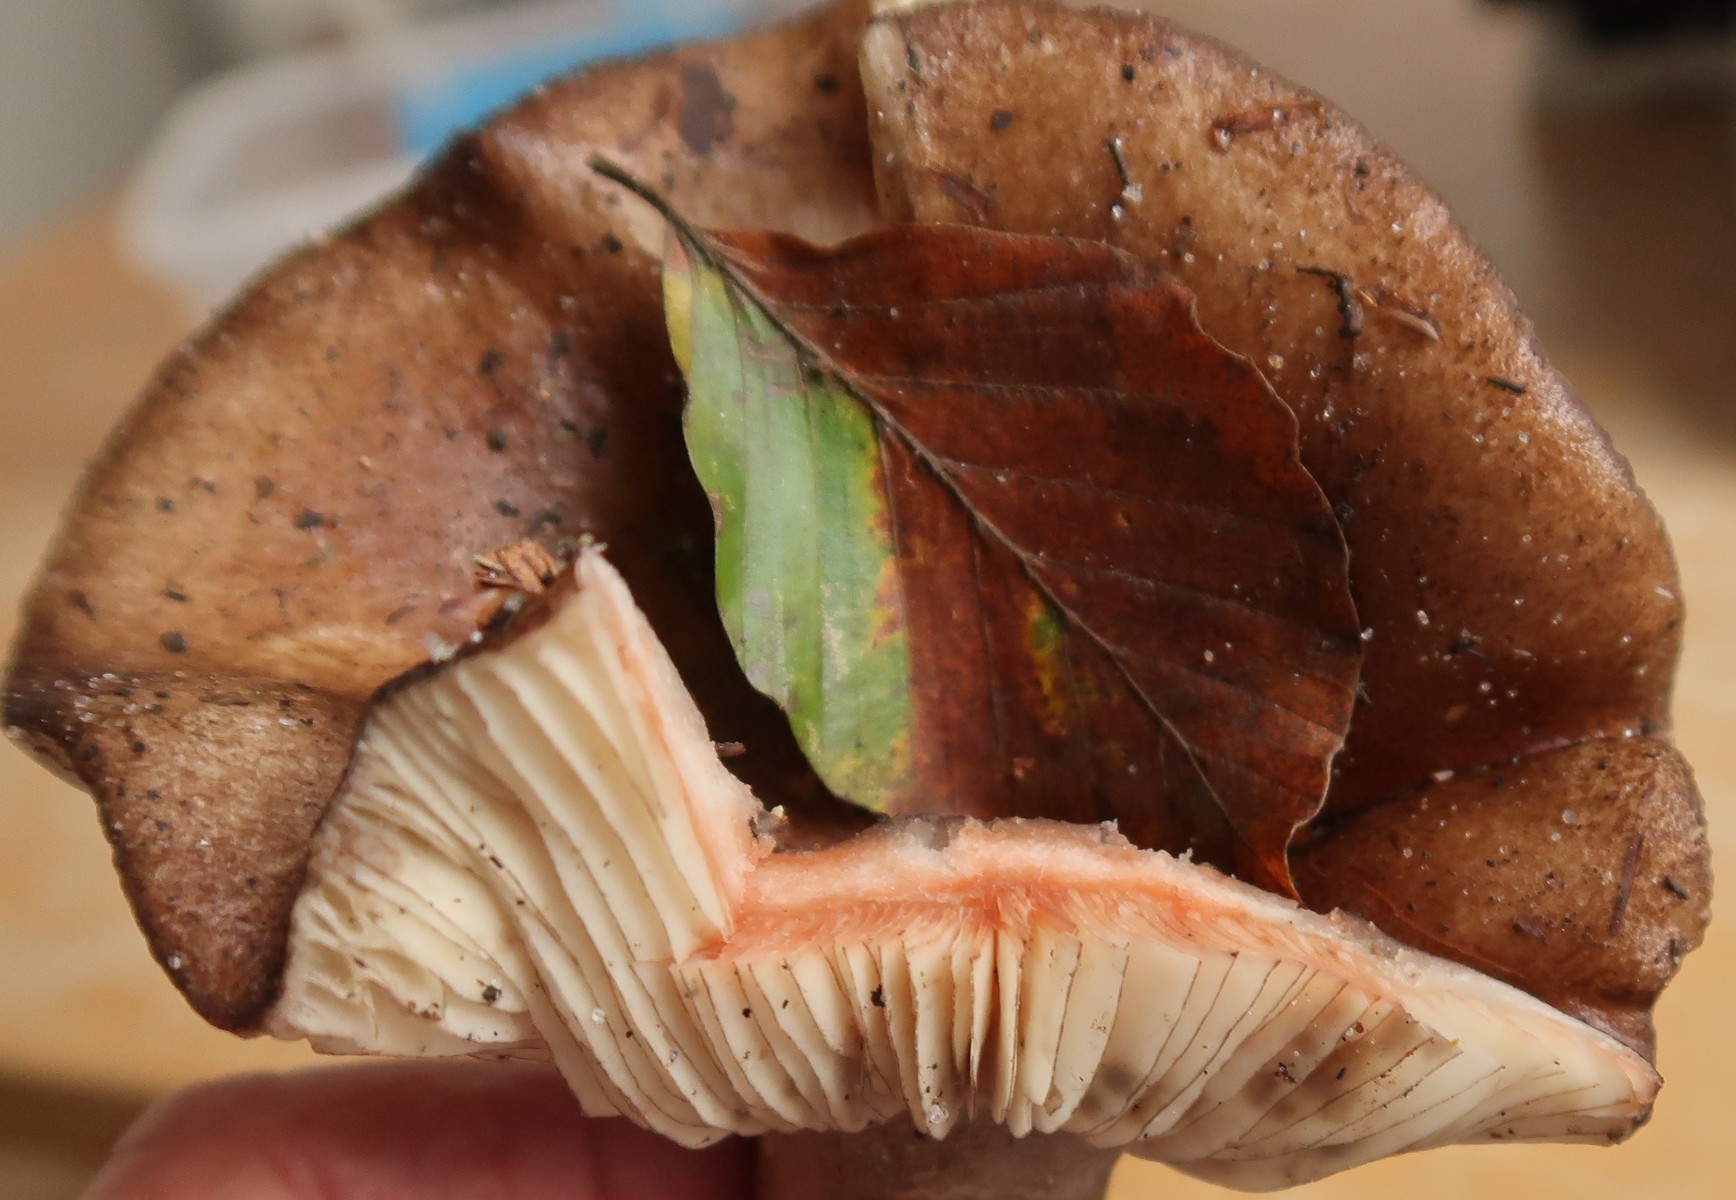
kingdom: Fungi
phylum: Basidiomycota
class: Agaricomycetes
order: Russulales
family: Russulaceae
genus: Russula
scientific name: Russula densifolia
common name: tætbladet skørhat
